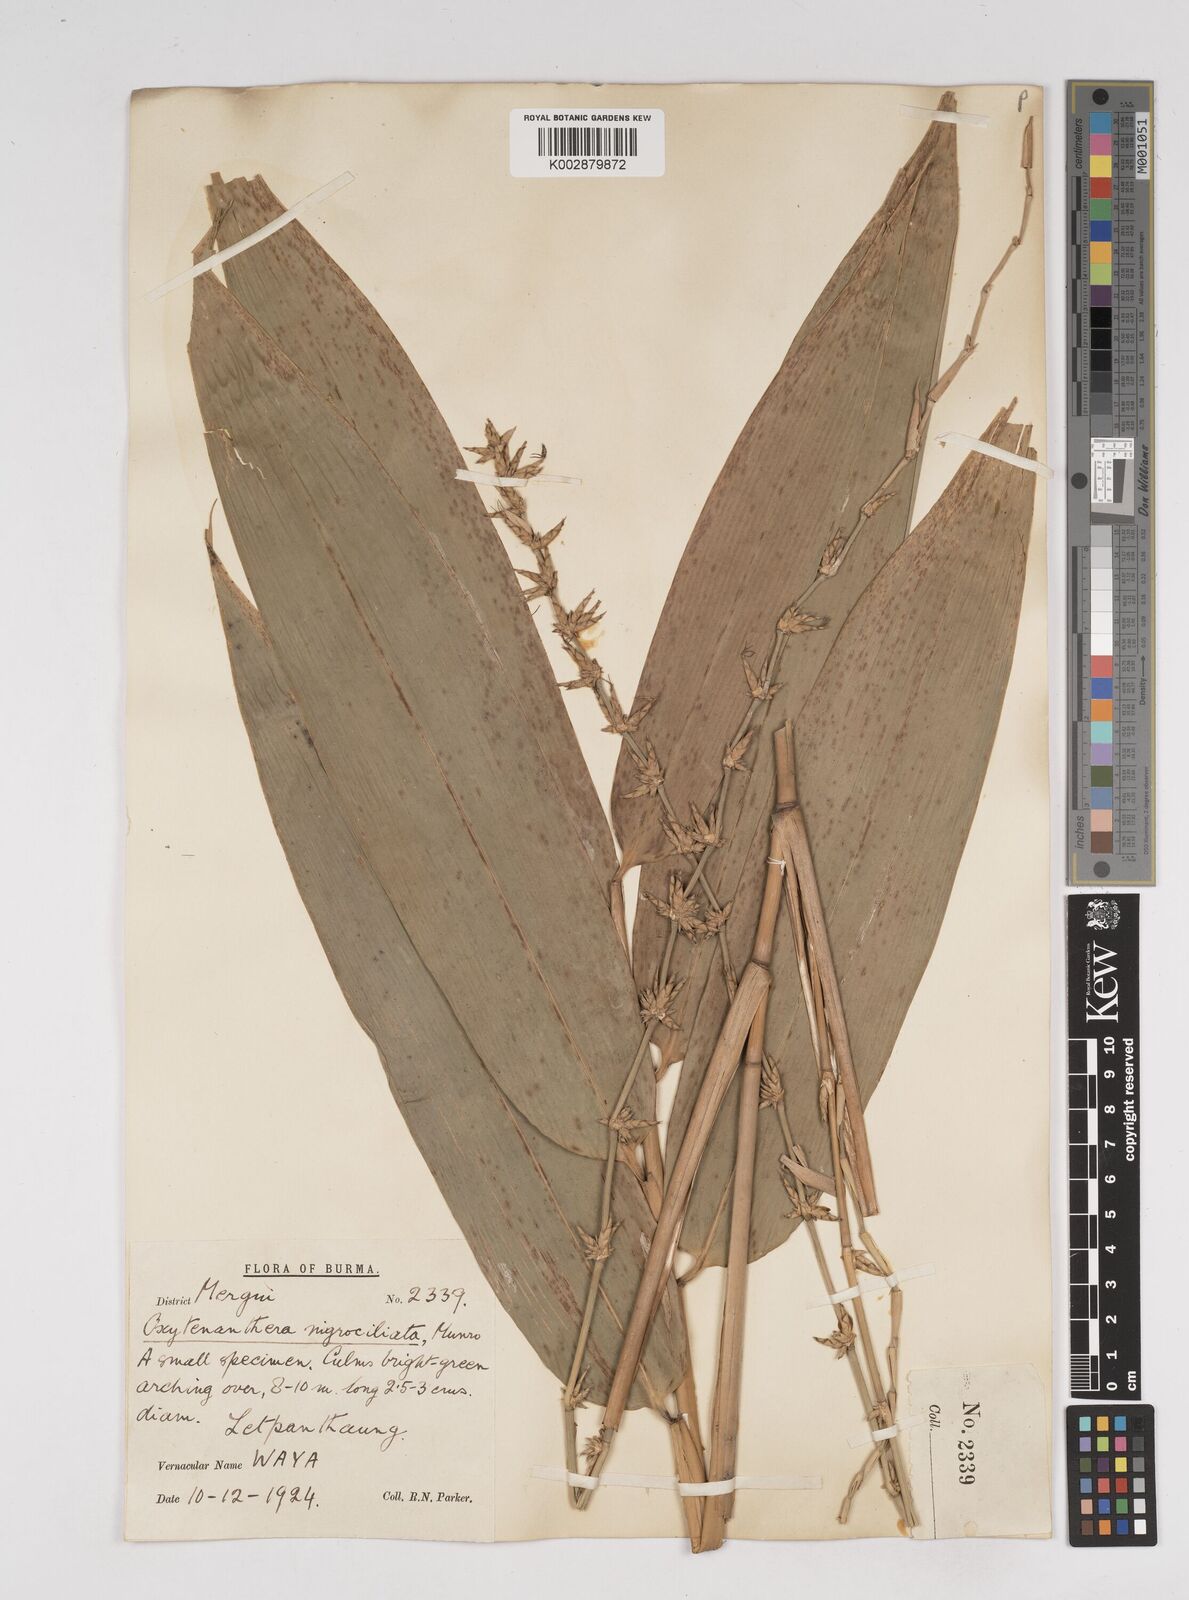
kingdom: Plantae
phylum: Tracheophyta
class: Liliopsida
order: Poales
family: Poaceae
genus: Gigantochloa
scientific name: Gigantochloa
